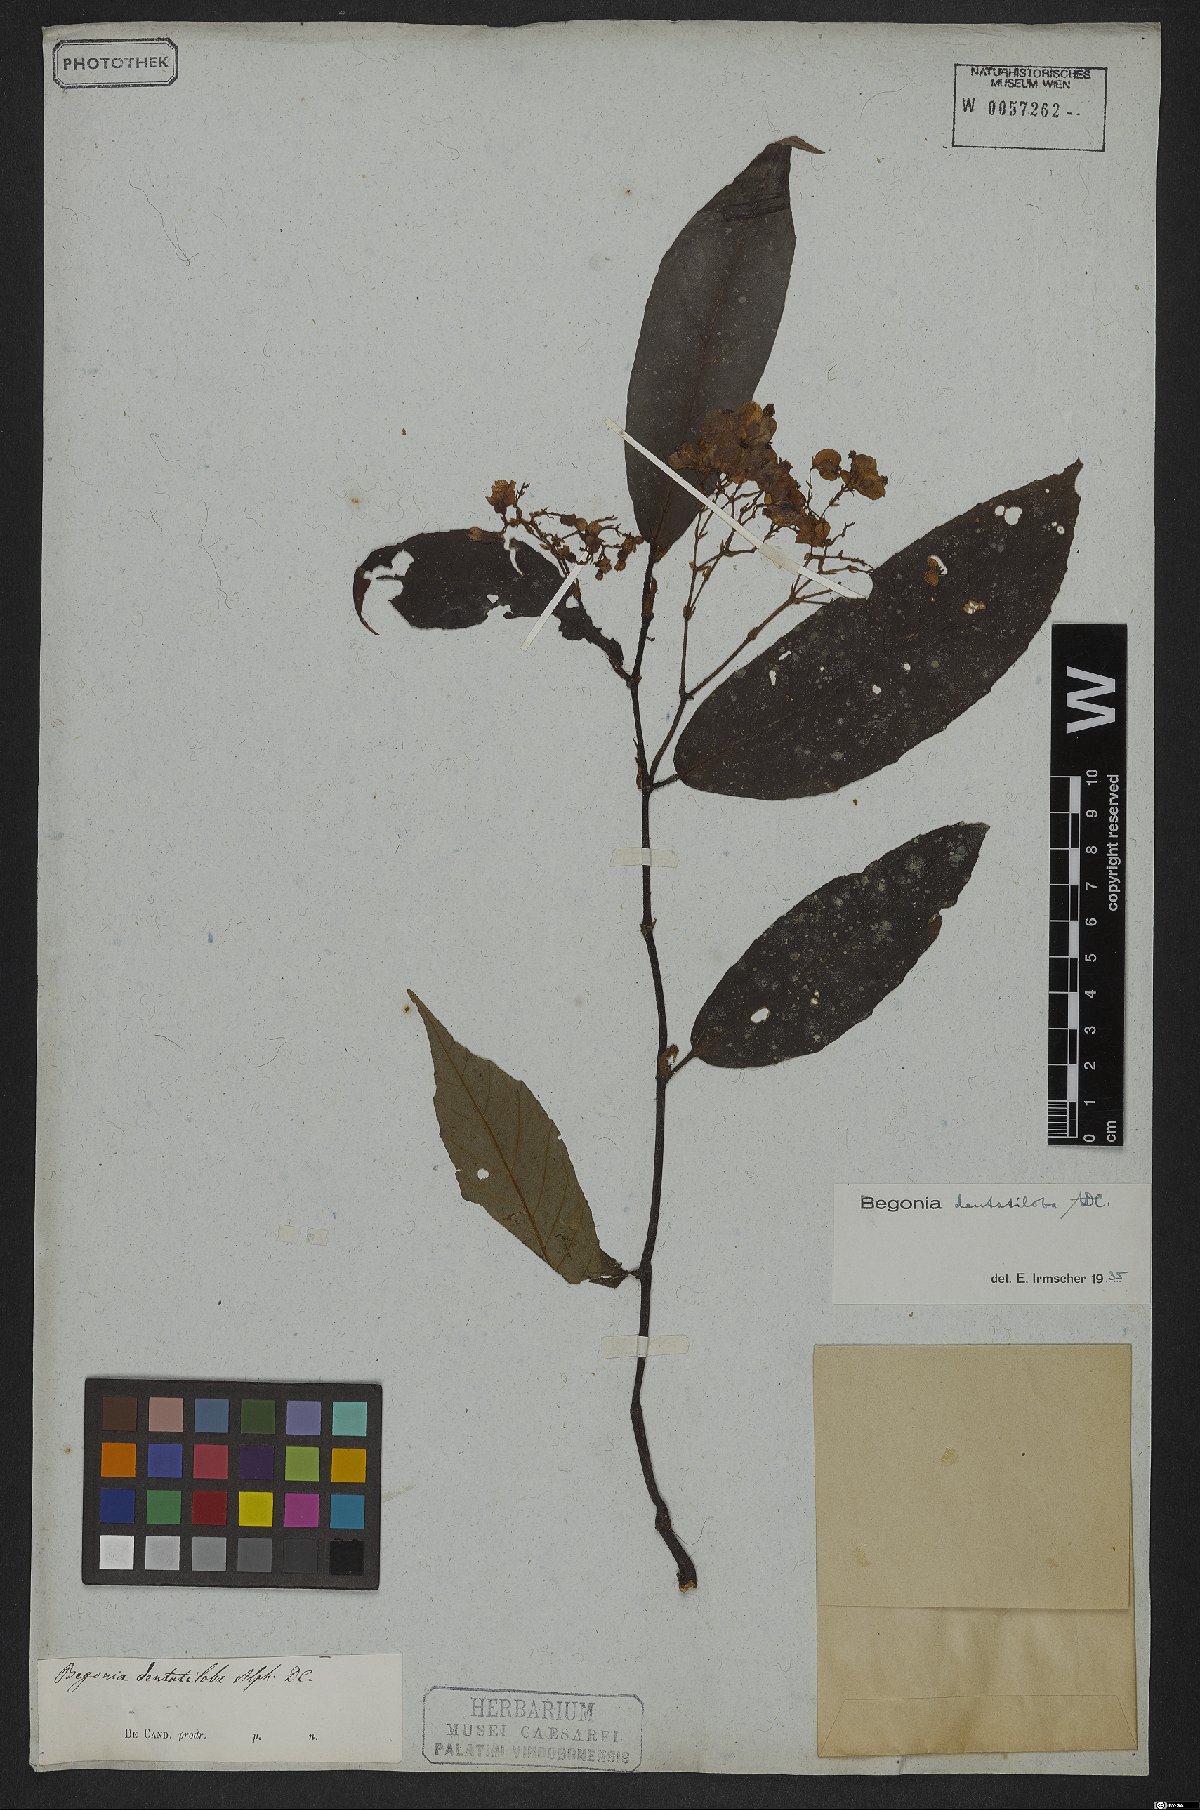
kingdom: Plantae
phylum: Tracheophyta
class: Magnoliopsida
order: Cucurbitales
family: Begoniaceae
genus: Begonia
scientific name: Begonia dentatiloba
